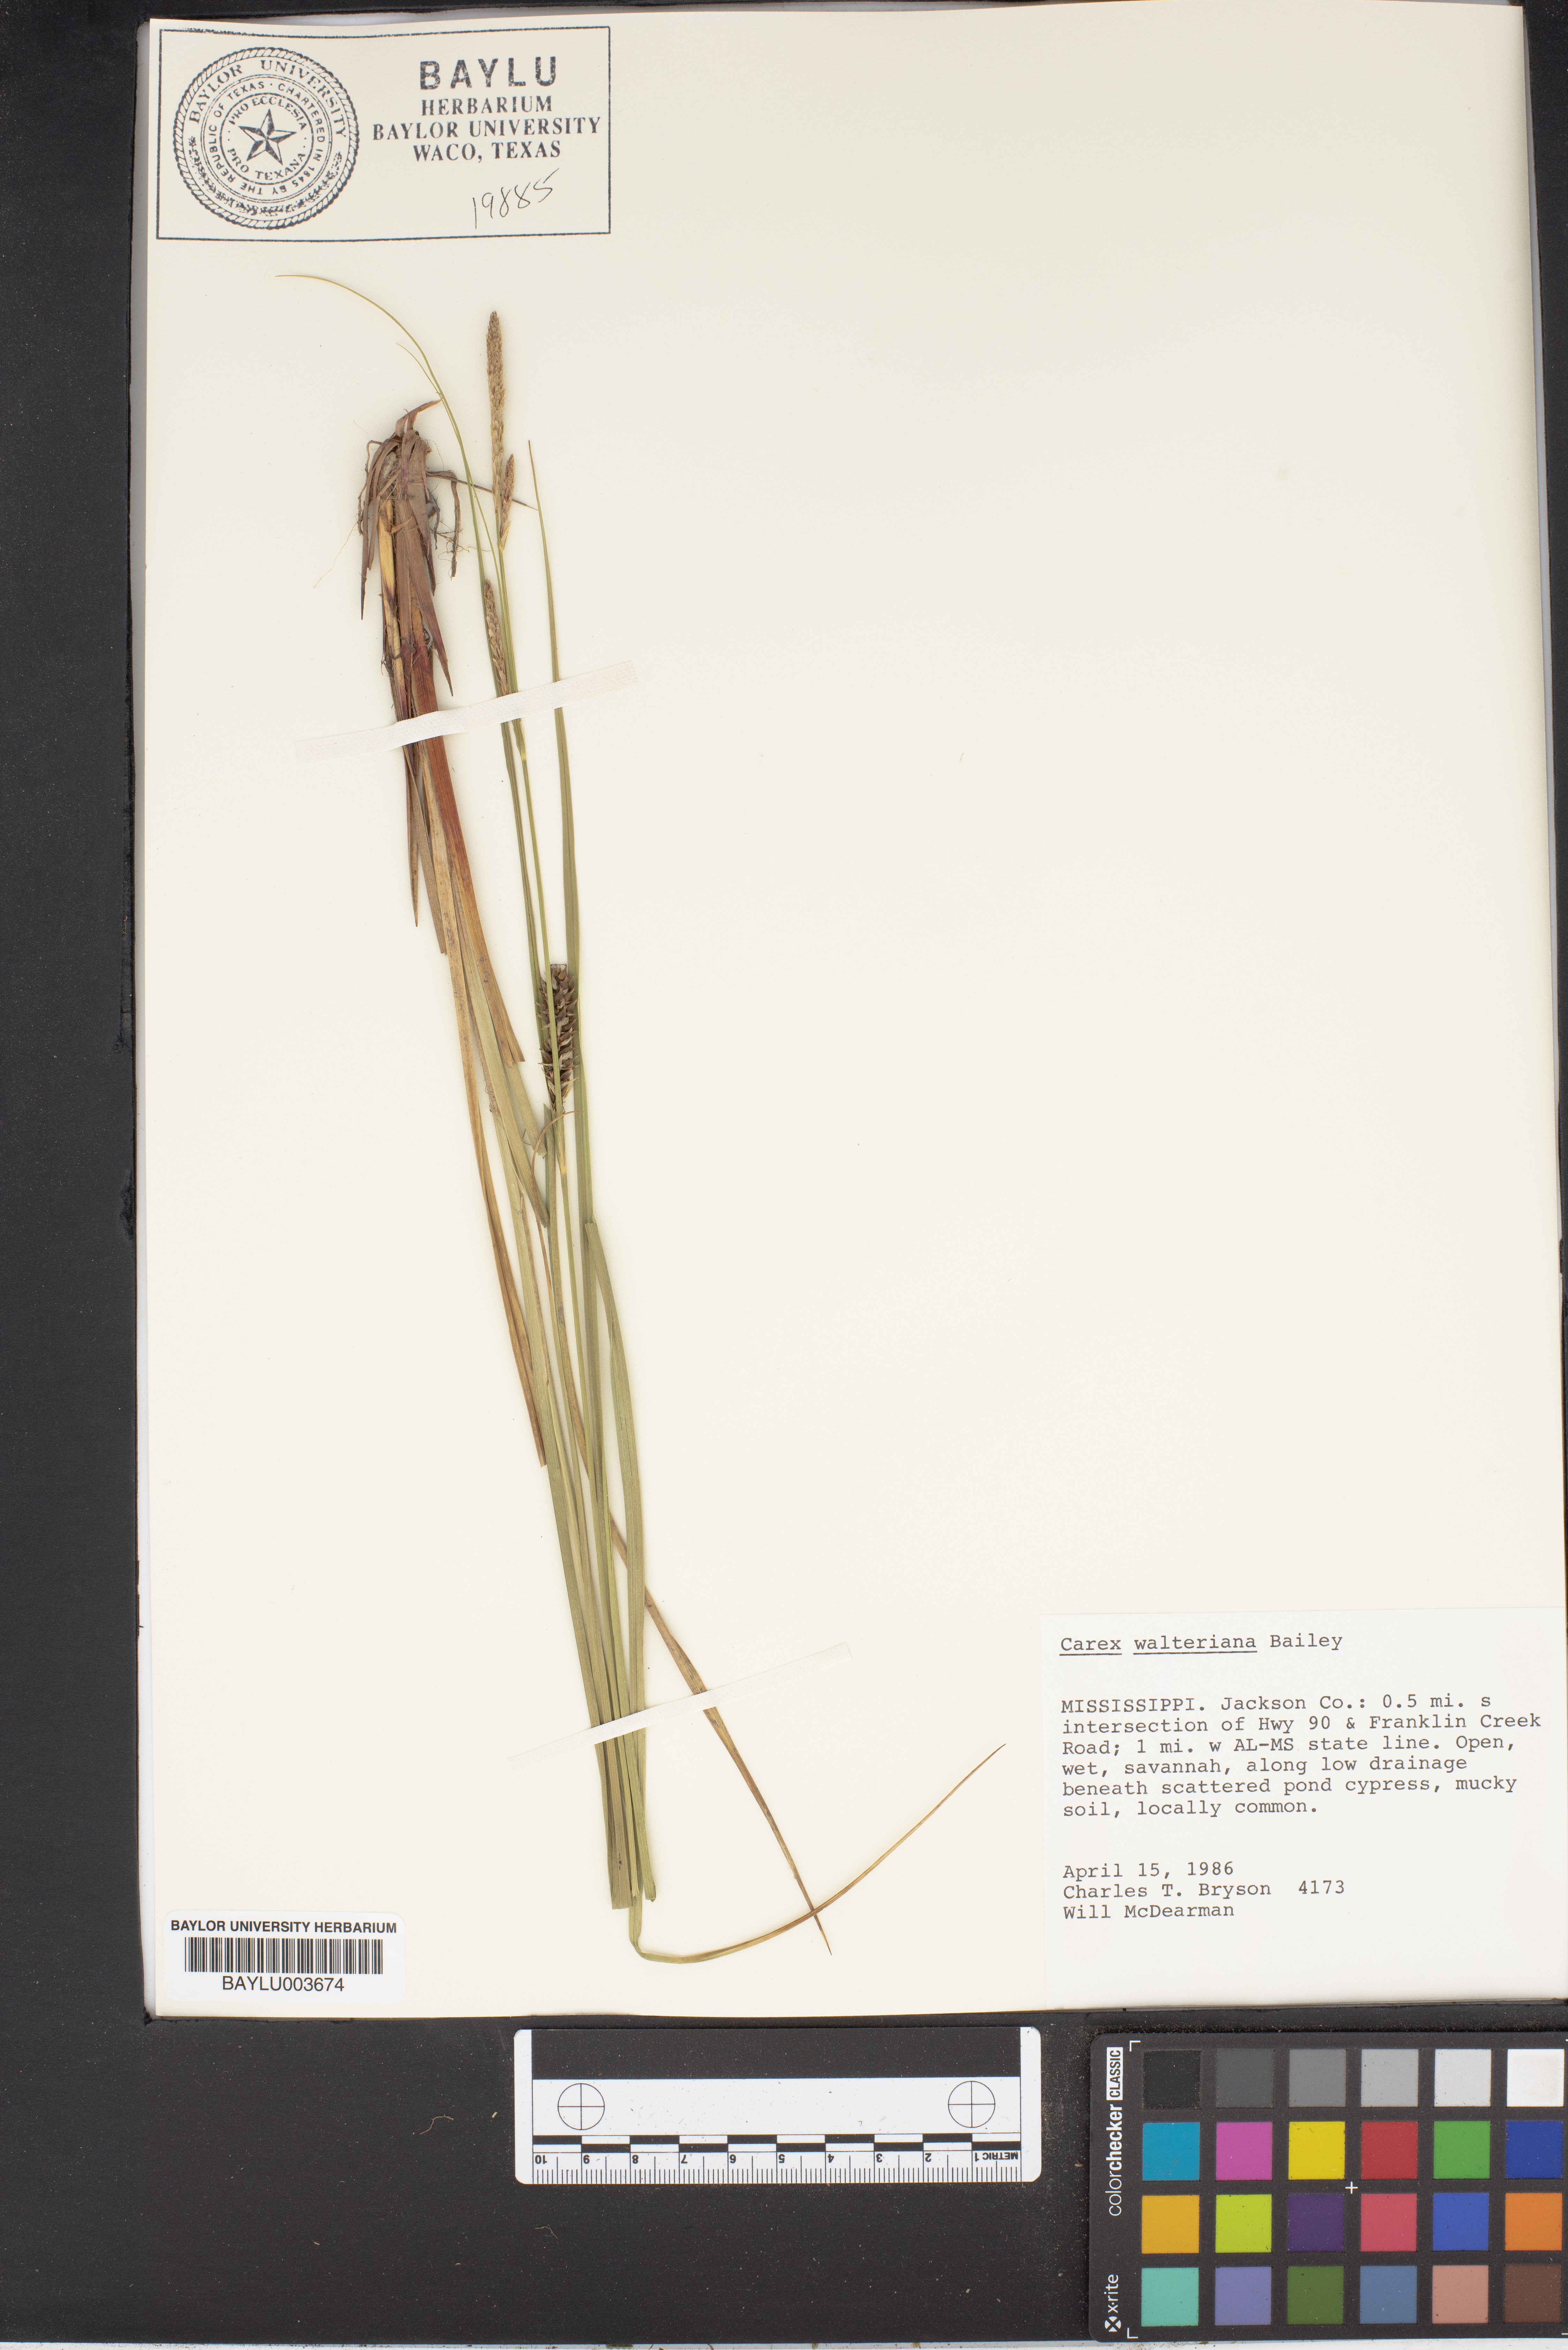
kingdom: Plantae
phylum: Tracheophyta
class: Liliopsida
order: Poales
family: Cyperaceae
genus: Carex
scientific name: Carex striata
